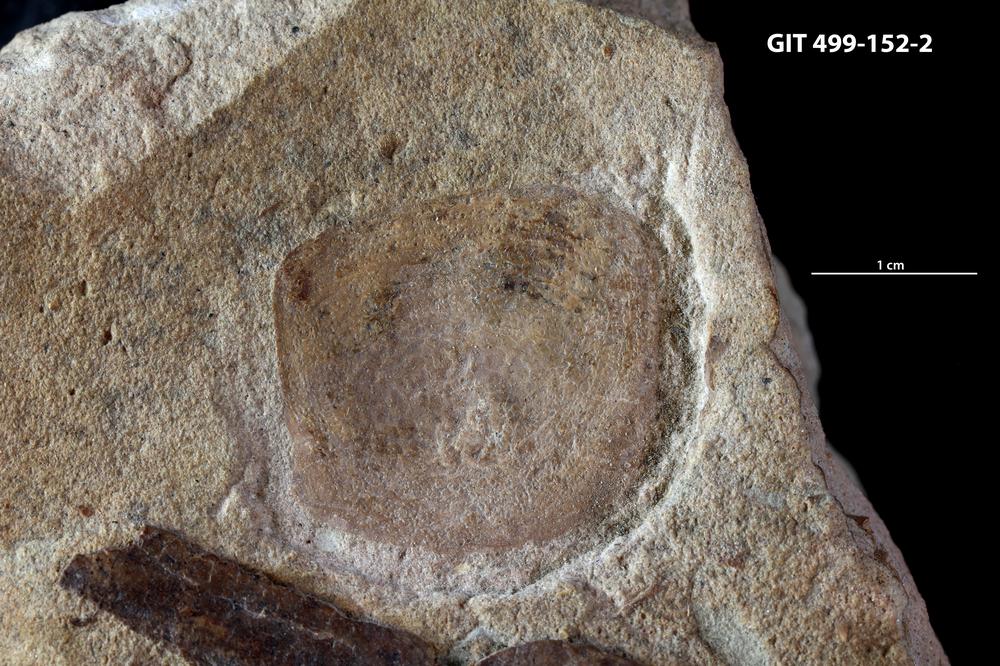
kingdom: Animalia
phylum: Chordata
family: Holoptychiidae
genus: Glyptolepis
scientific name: Glyptolepis
